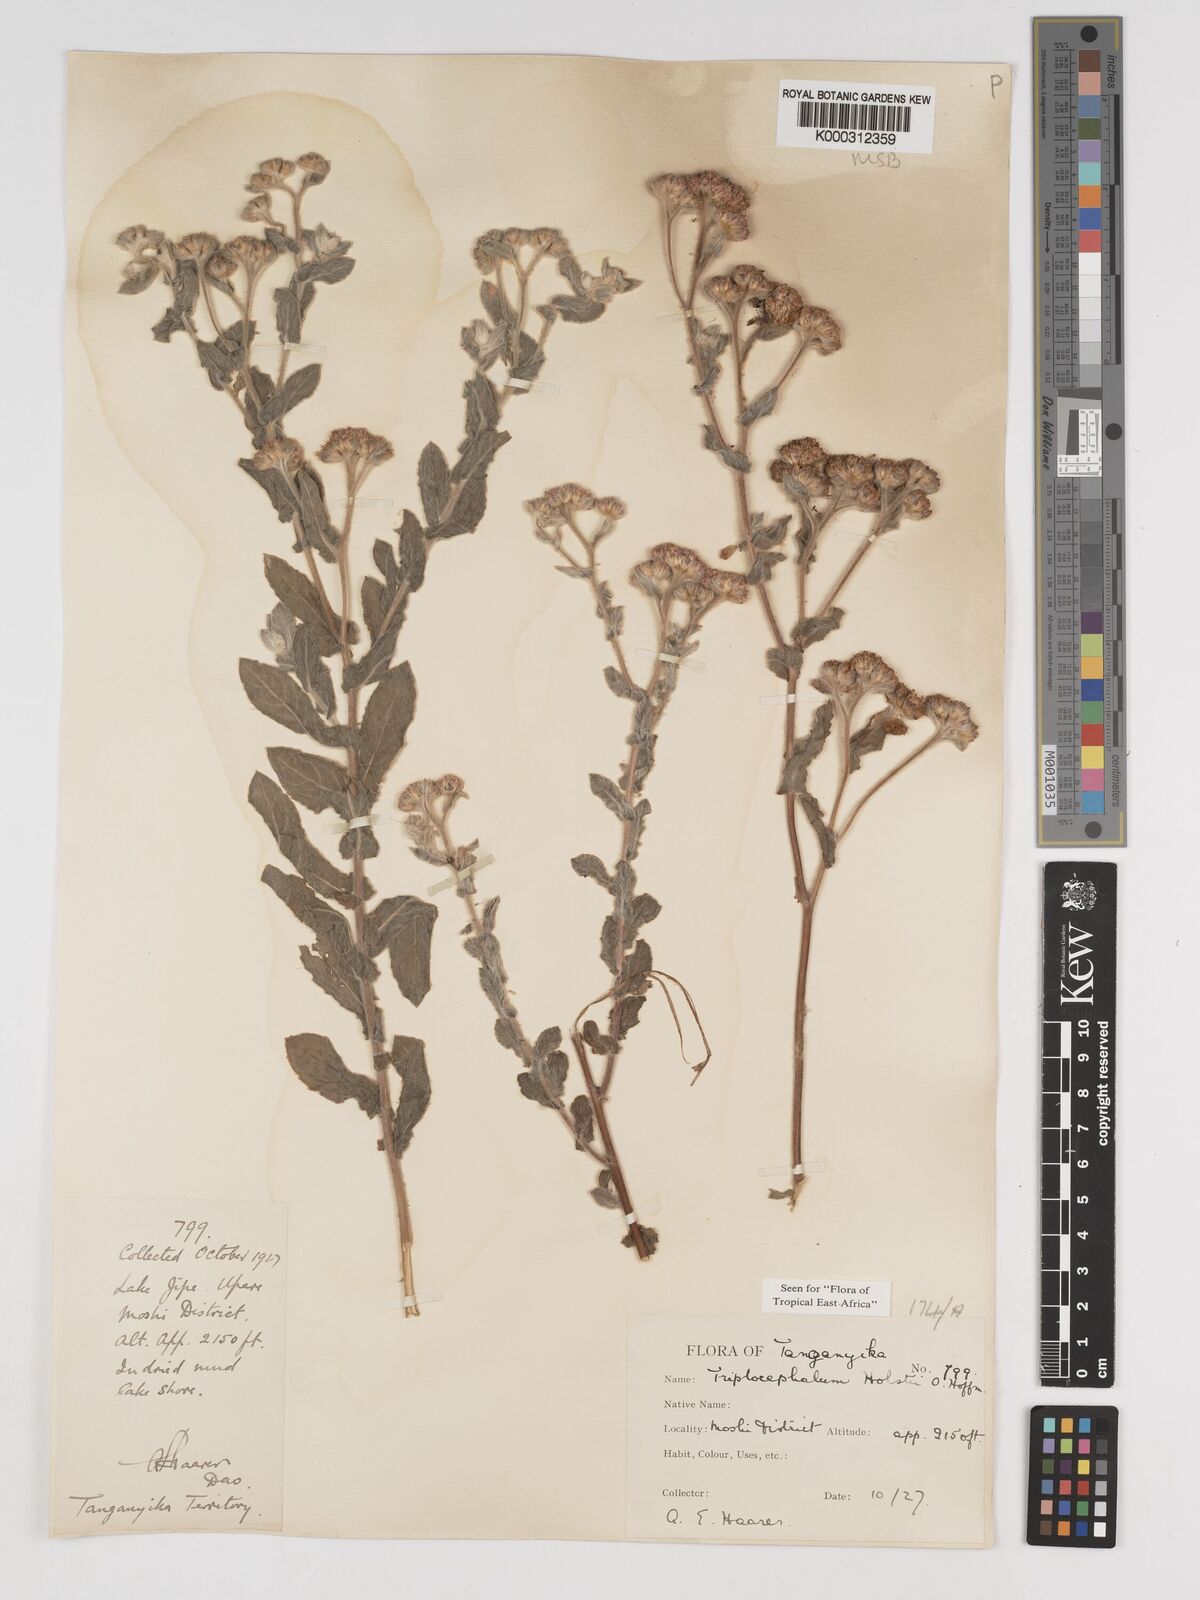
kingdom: Plantae
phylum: Tracheophyta
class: Magnoliopsida
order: Asterales
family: Asteraceae
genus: Triplocephalum
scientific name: Triplocephalum holstii
